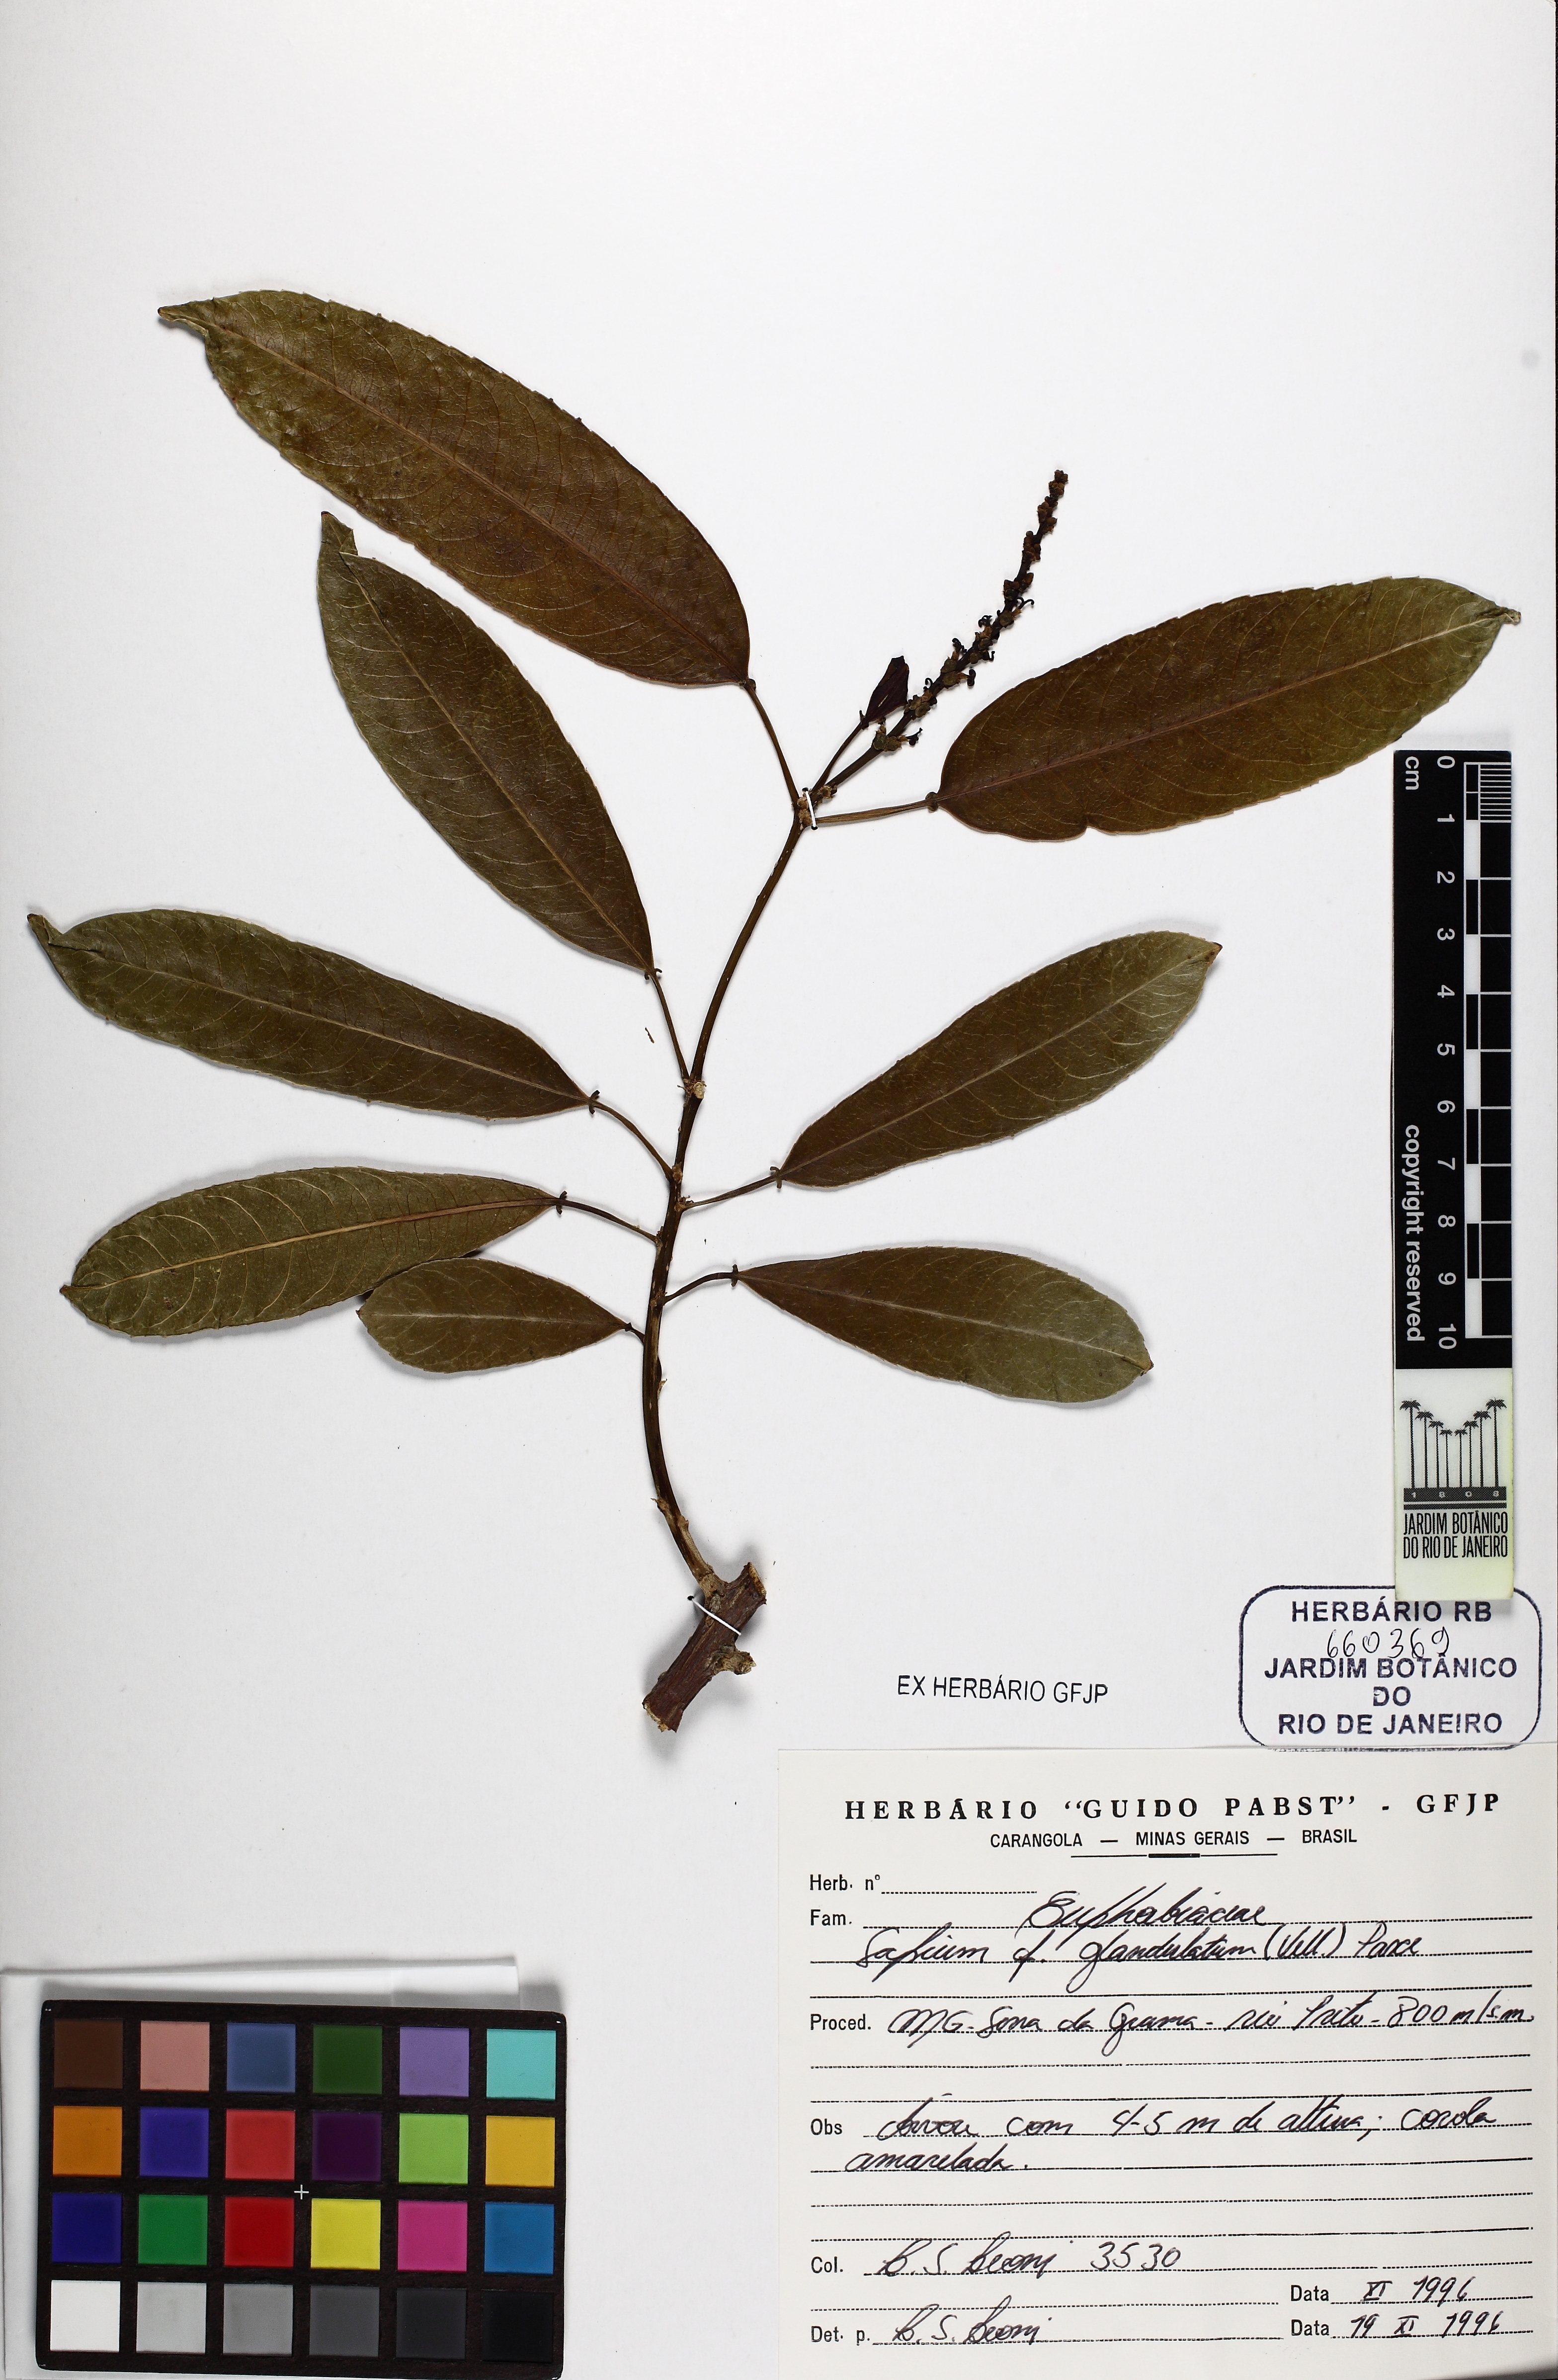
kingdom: Plantae
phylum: Tracheophyta
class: Magnoliopsida
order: Malpighiales
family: Euphorbiaceae
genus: Sapium
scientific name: Sapium glandulosum
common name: Milktree
